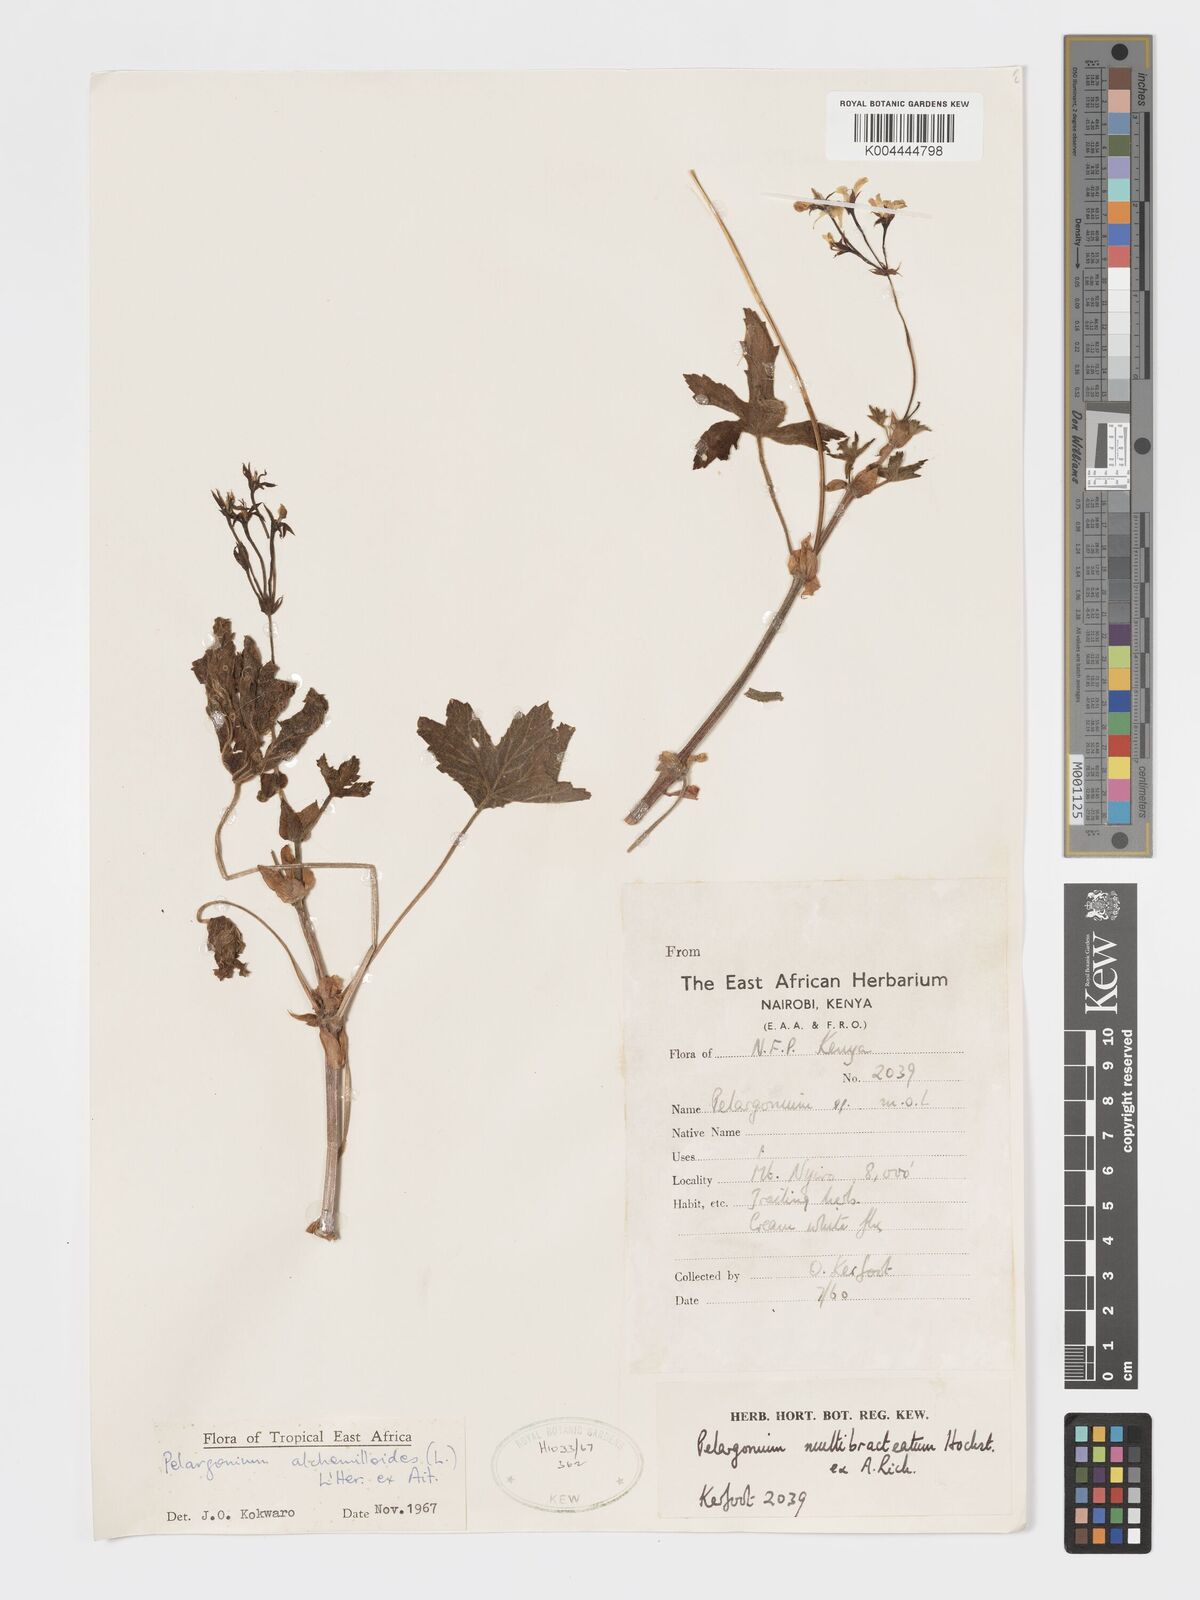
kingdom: Plantae
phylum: Tracheophyta
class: Magnoliopsida
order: Geraniales
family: Geraniaceae
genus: Pelargonium
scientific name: Pelargonium alchemilloides
